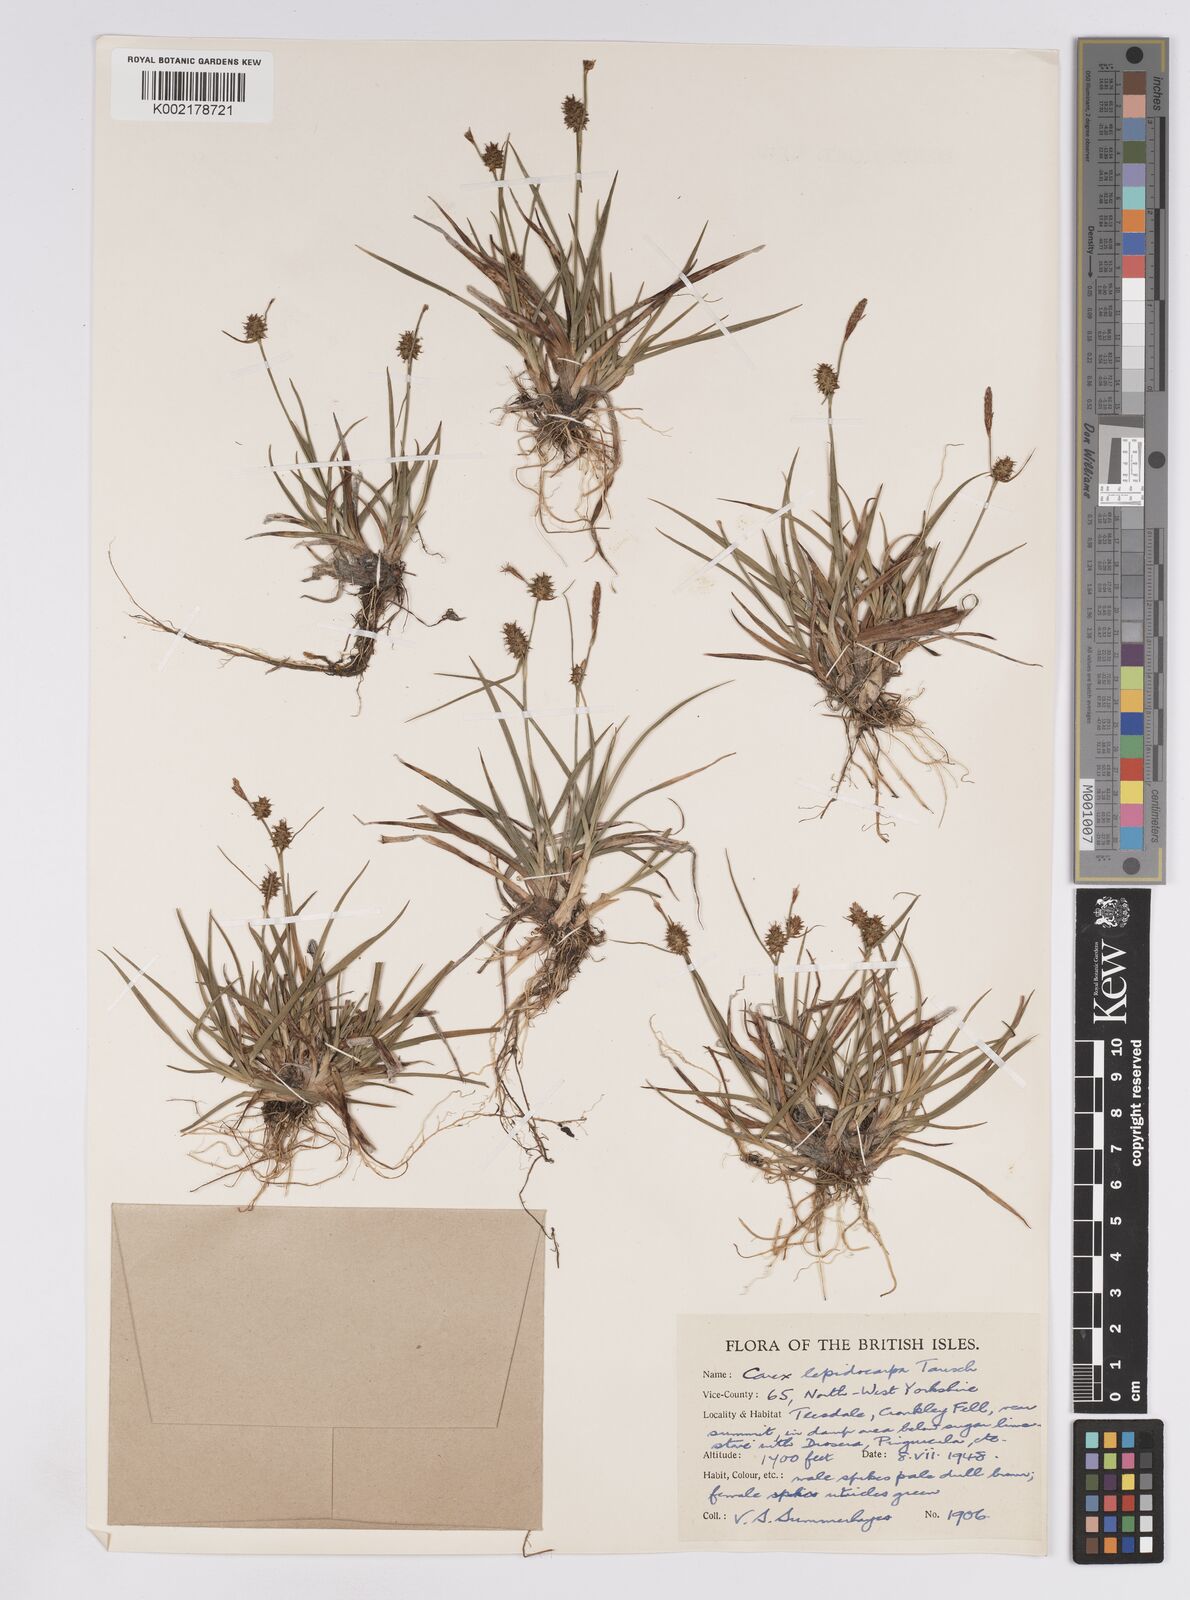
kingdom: Plantae
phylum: Tracheophyta
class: Liliopsida
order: Poales
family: Cyperaceae
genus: Carex
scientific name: Carex lepidocarpa
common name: Long-stalked yellow-sedge
